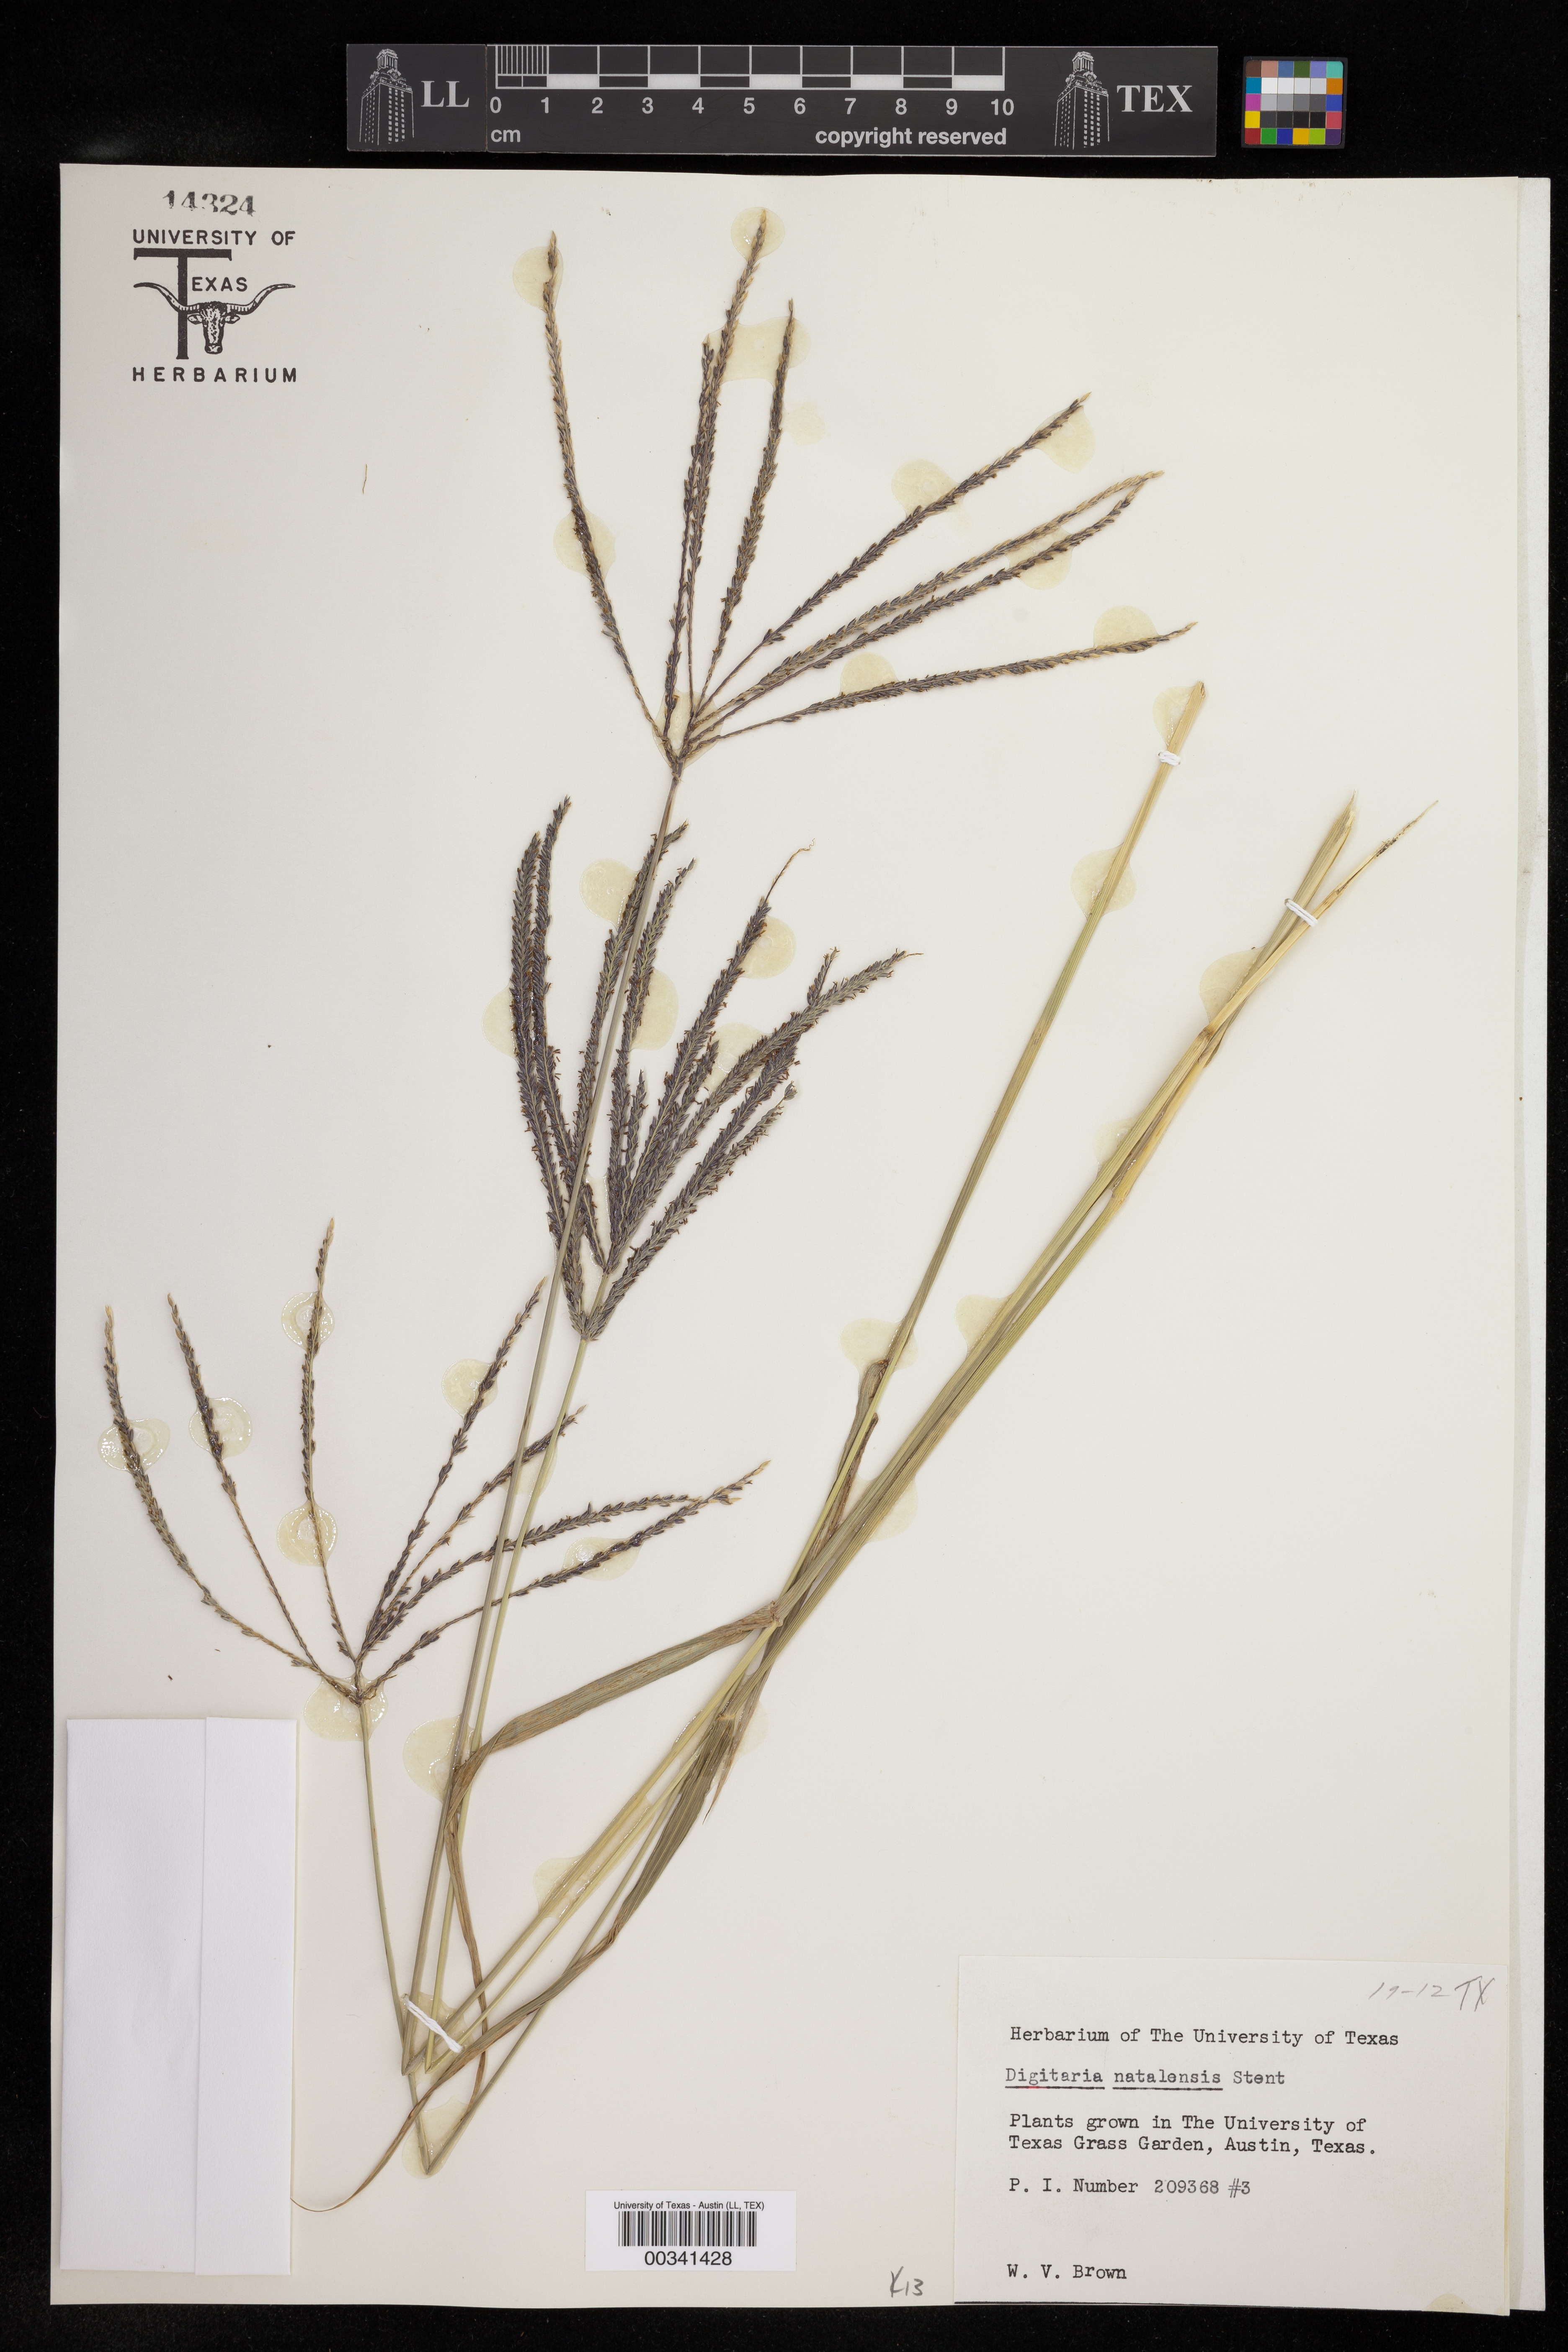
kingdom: Plantae
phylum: Tracheophyta
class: Liliopsida
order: Poales
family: Poaceae
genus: Digitaria
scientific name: Digitaria natalensis
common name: Coast finger grass
